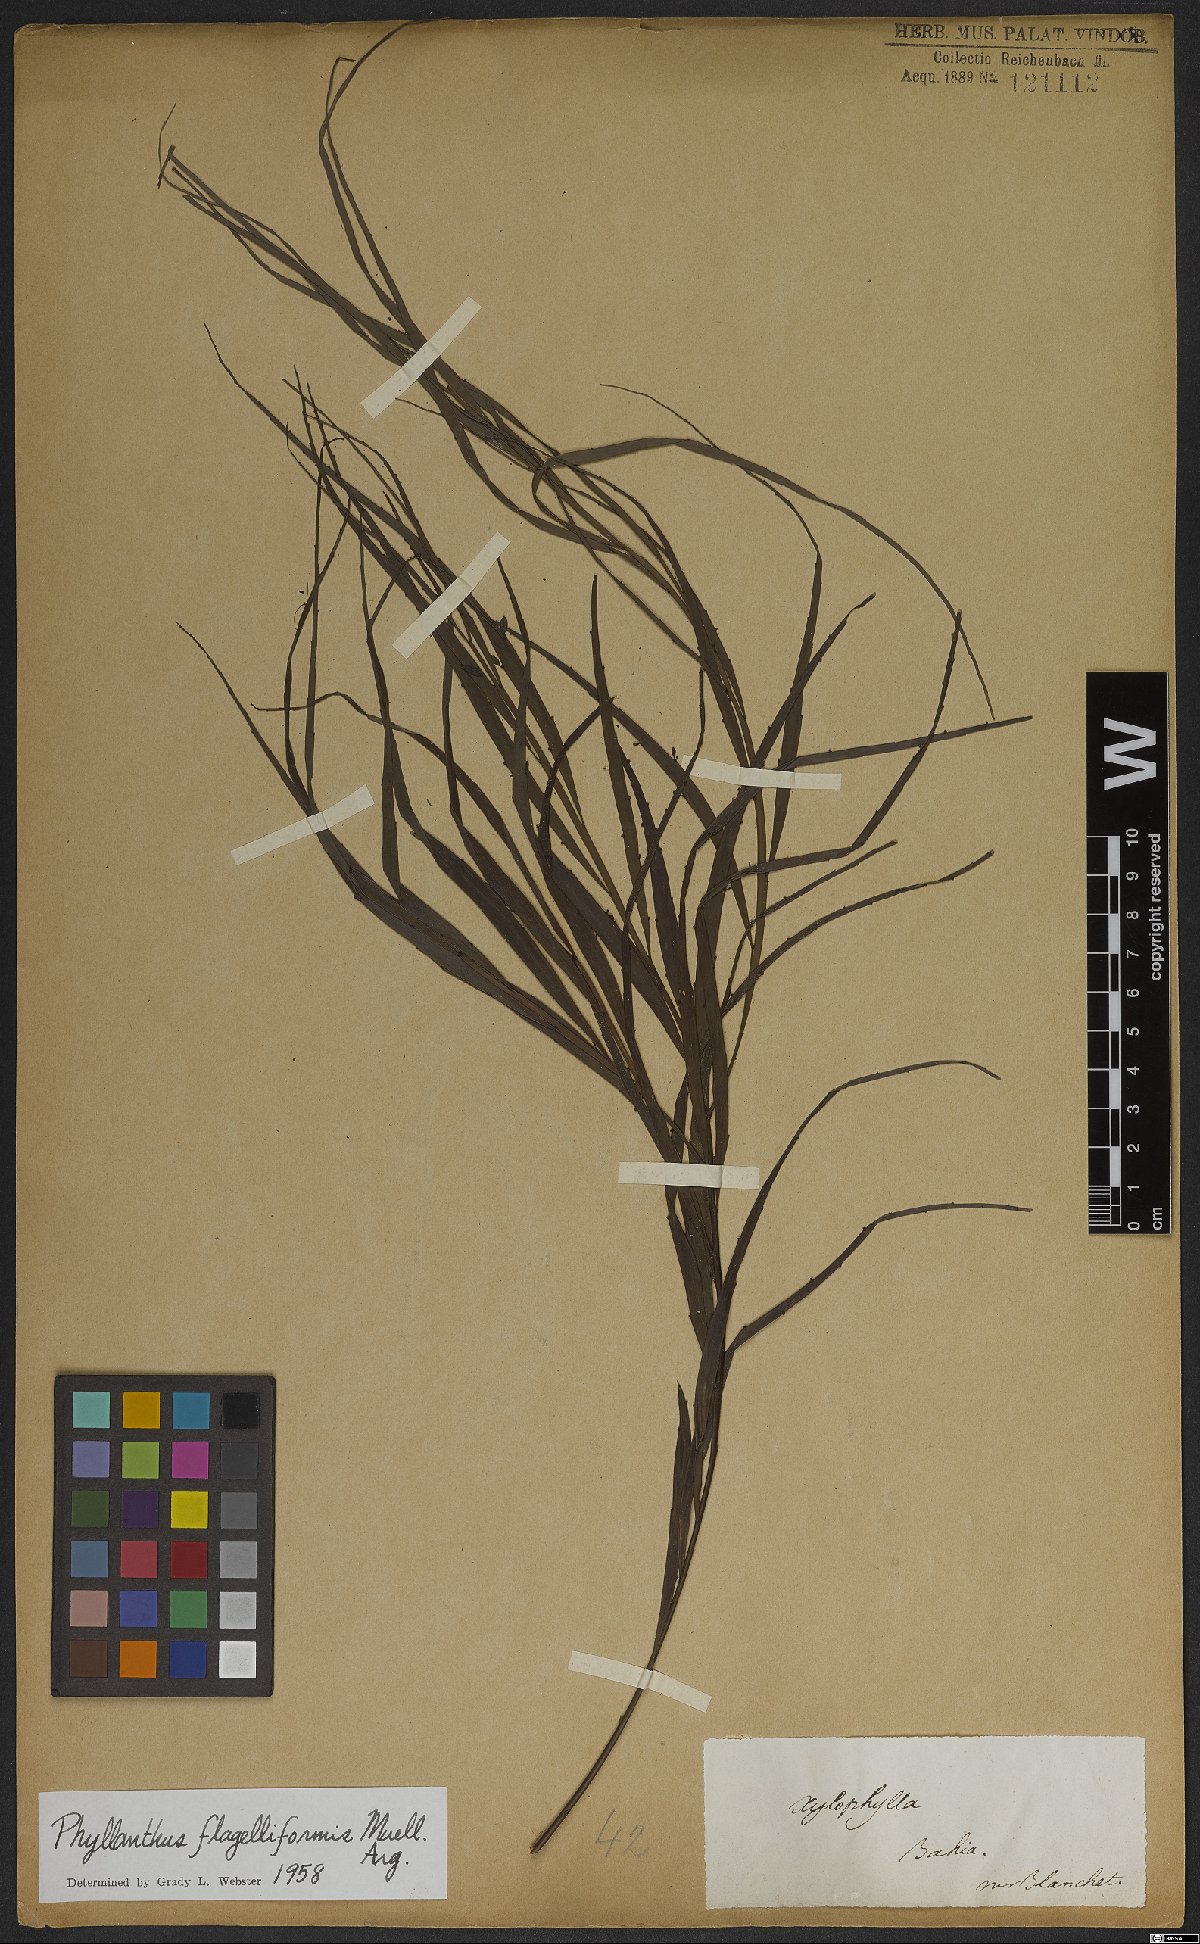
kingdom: Plantae
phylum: Tracheophyta
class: Magnoliopsida
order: Malpighiales
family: Phyllanthaceae
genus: Phyllanthus
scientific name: Phyllanthus eurisladro
